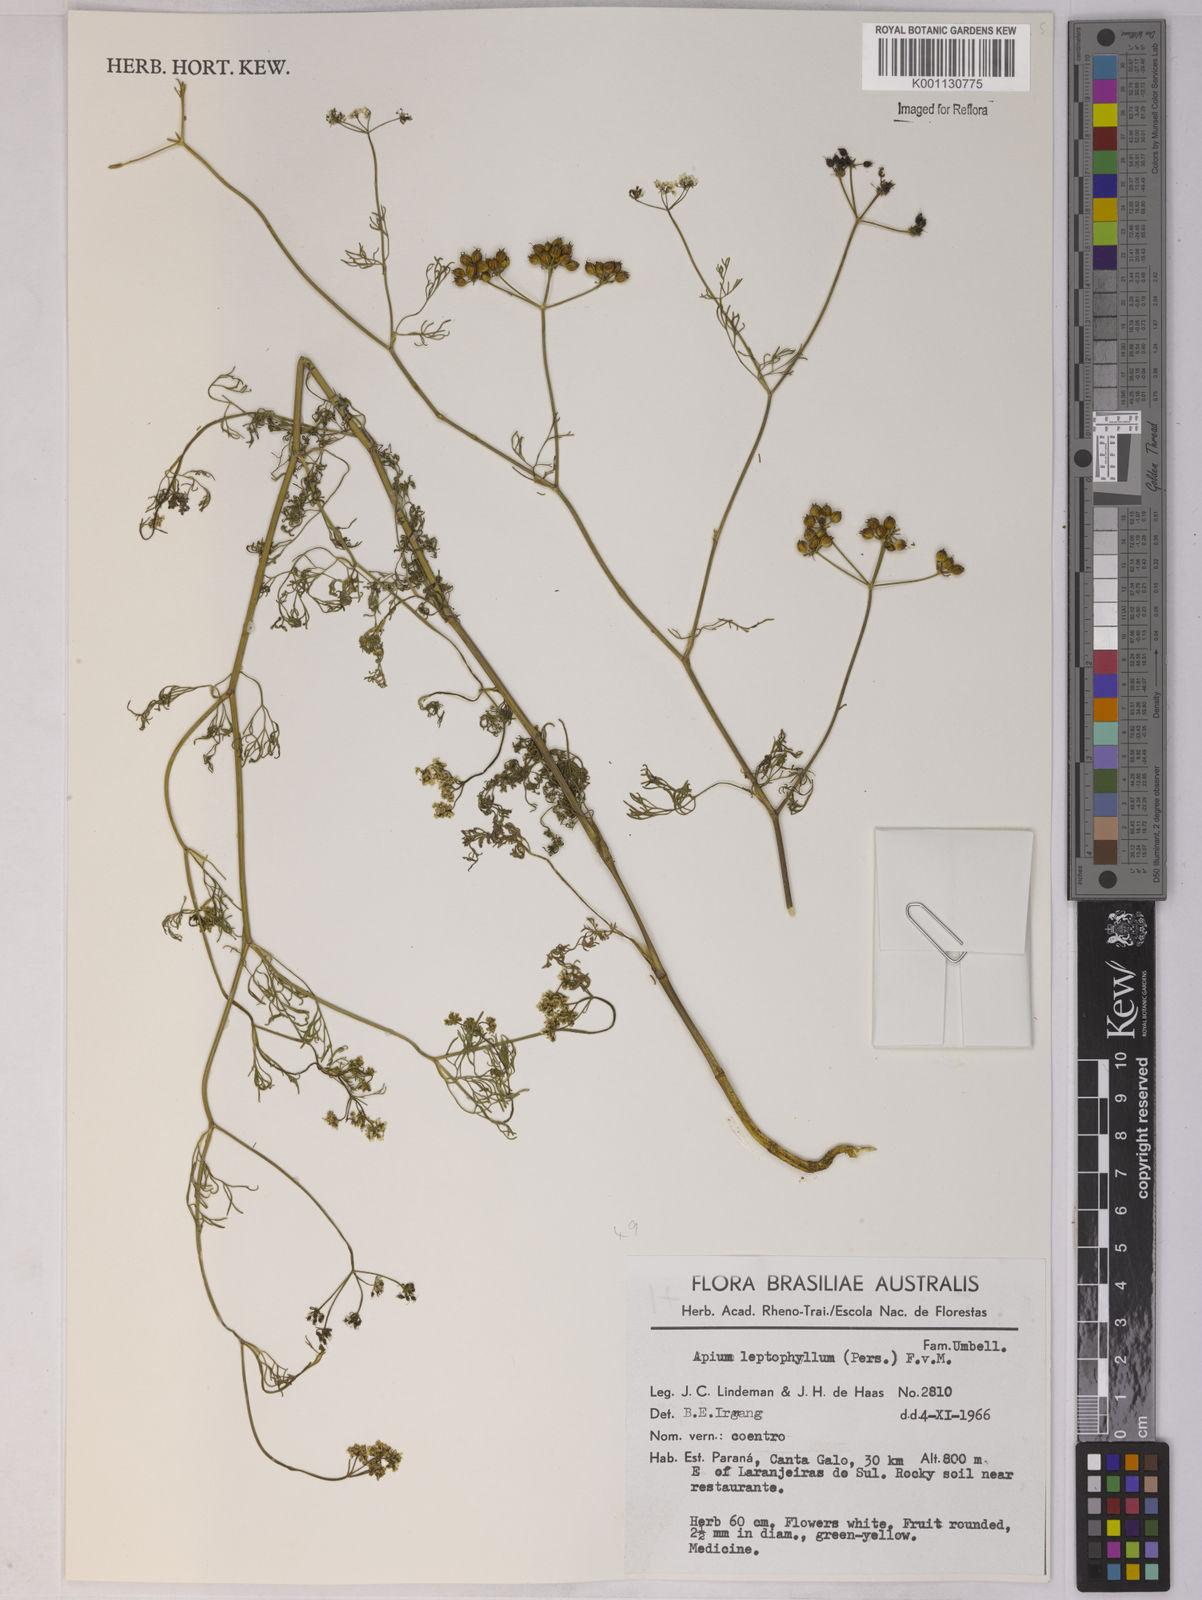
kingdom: Plantae
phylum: Tracheophyta
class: Magnoliopsida
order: Apiales
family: Apiaceae
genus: Apium
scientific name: Apium
